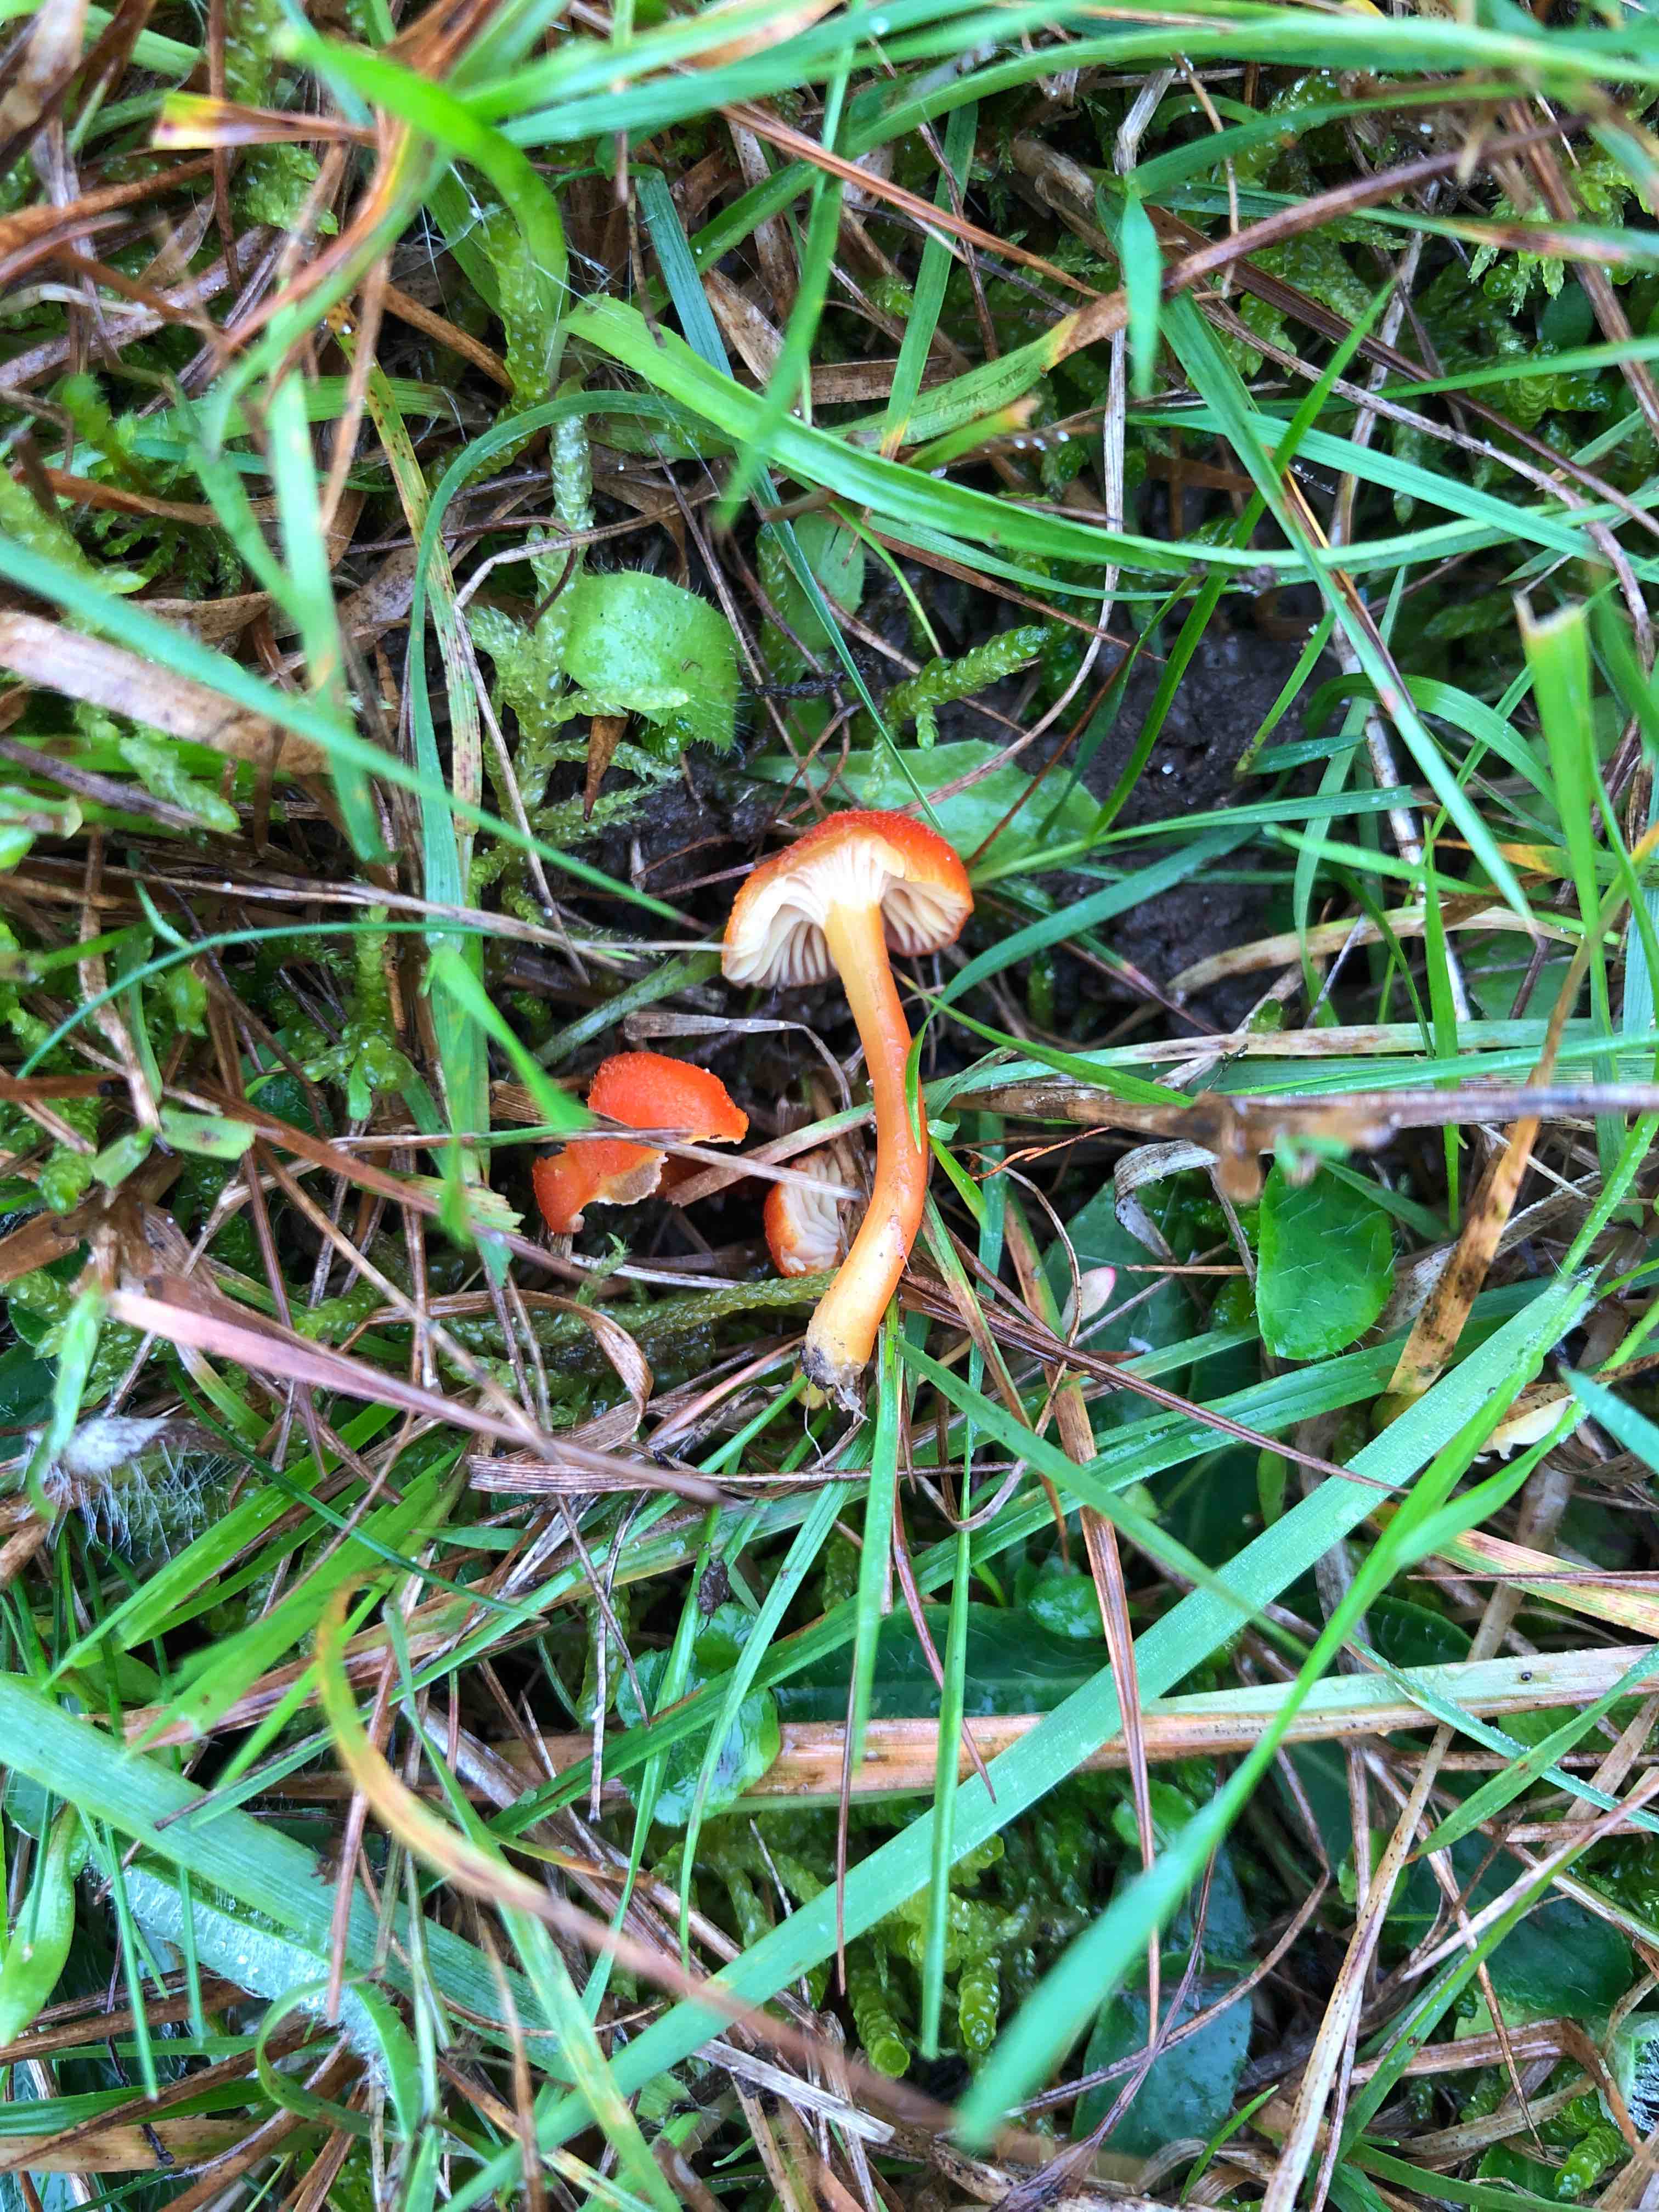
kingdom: Fungi
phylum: Basidiomycota
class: Agaricomycetes
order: Agaricales
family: Hygrophoraceae
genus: Hygrocybe
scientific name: Hygrocybe cantharellus
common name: kantarel-vokshat
